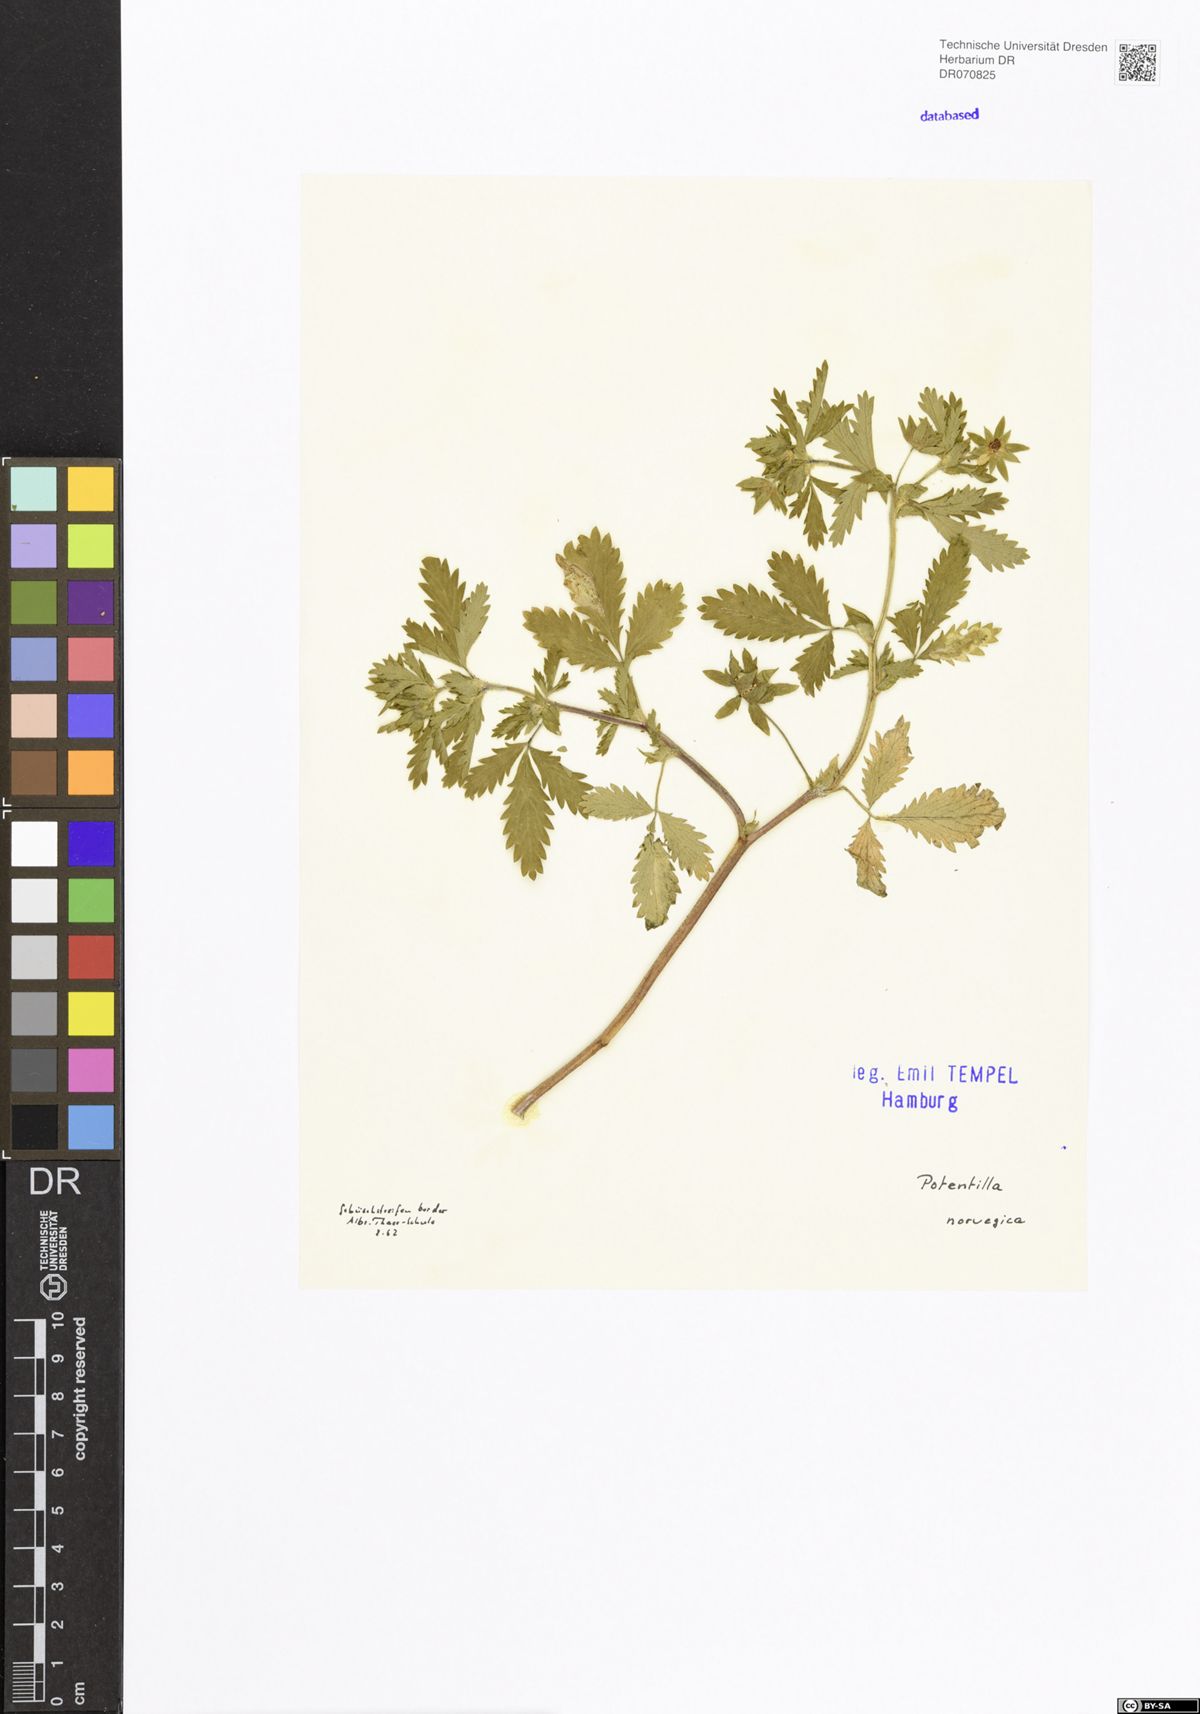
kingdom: Plantae
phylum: Tracheophyta
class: Magnoliopsida
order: Rosales
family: Rosaceae
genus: Potentilla
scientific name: Potentilla norvegica
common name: Ternate-leaved cinquefoil
